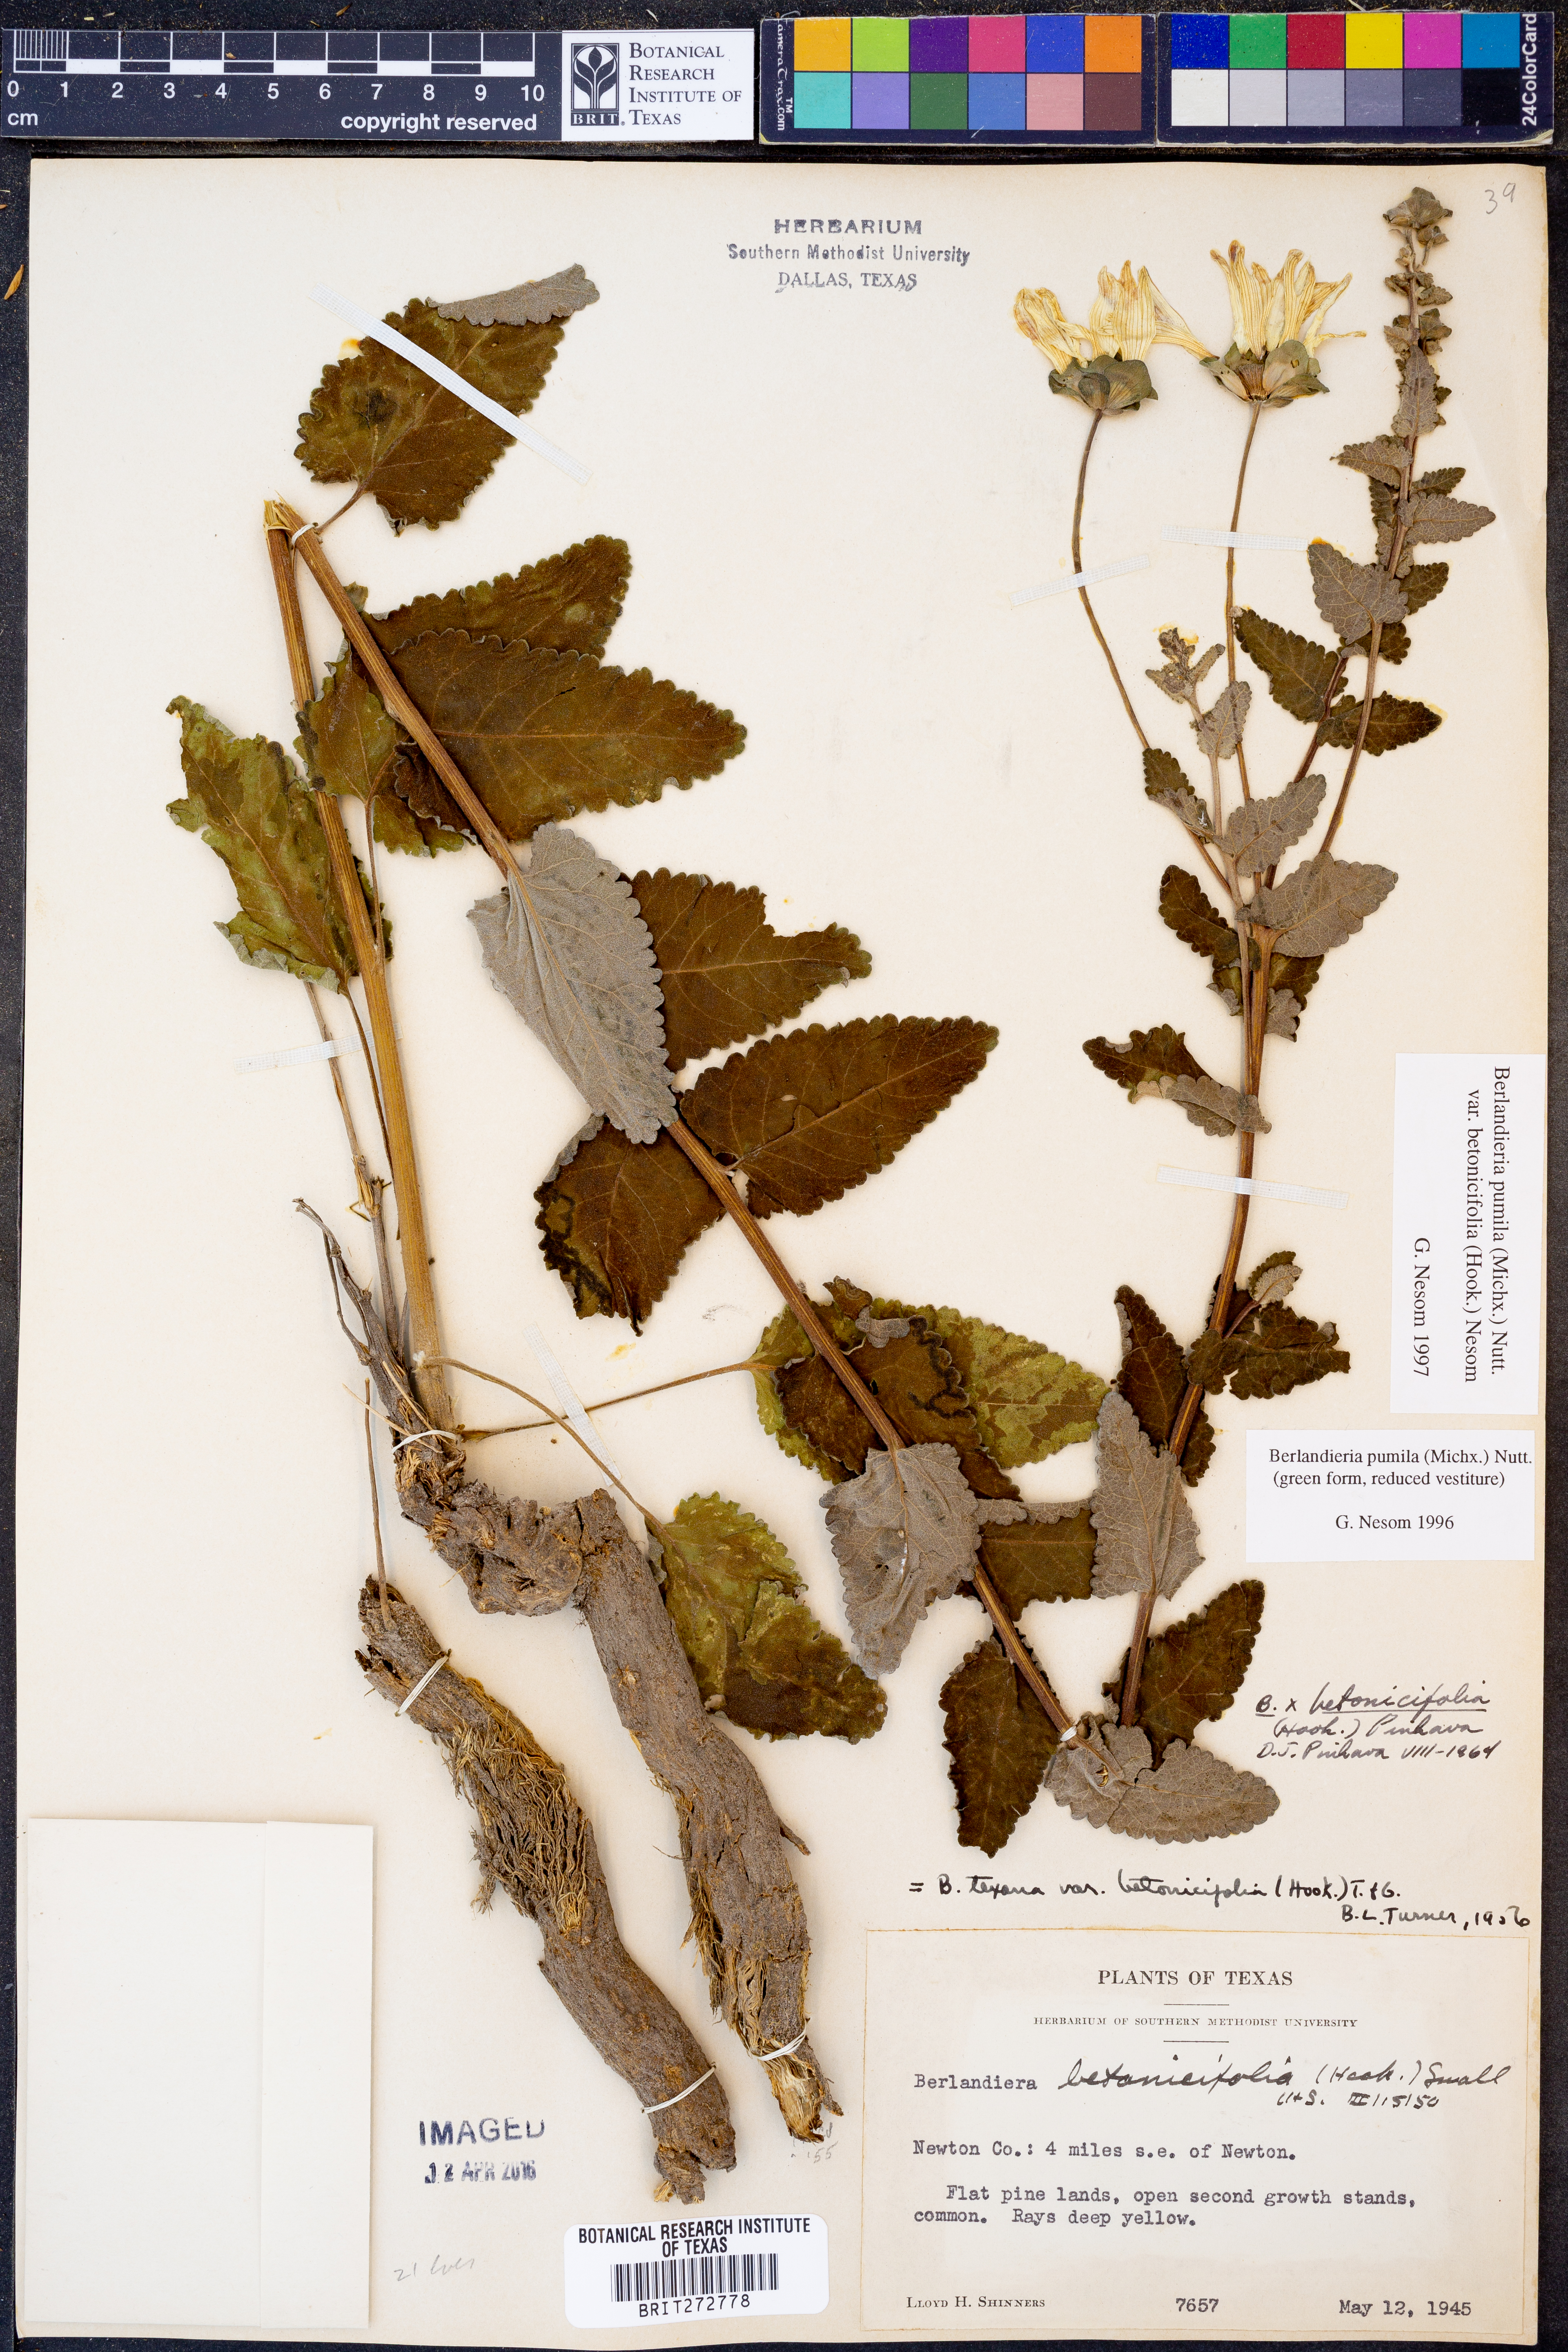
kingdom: Plantae
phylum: Tracheophyta
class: Magnoliopsida
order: Asterales
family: Asteraceae
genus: Berlandiera
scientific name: Berlandiera pumila
